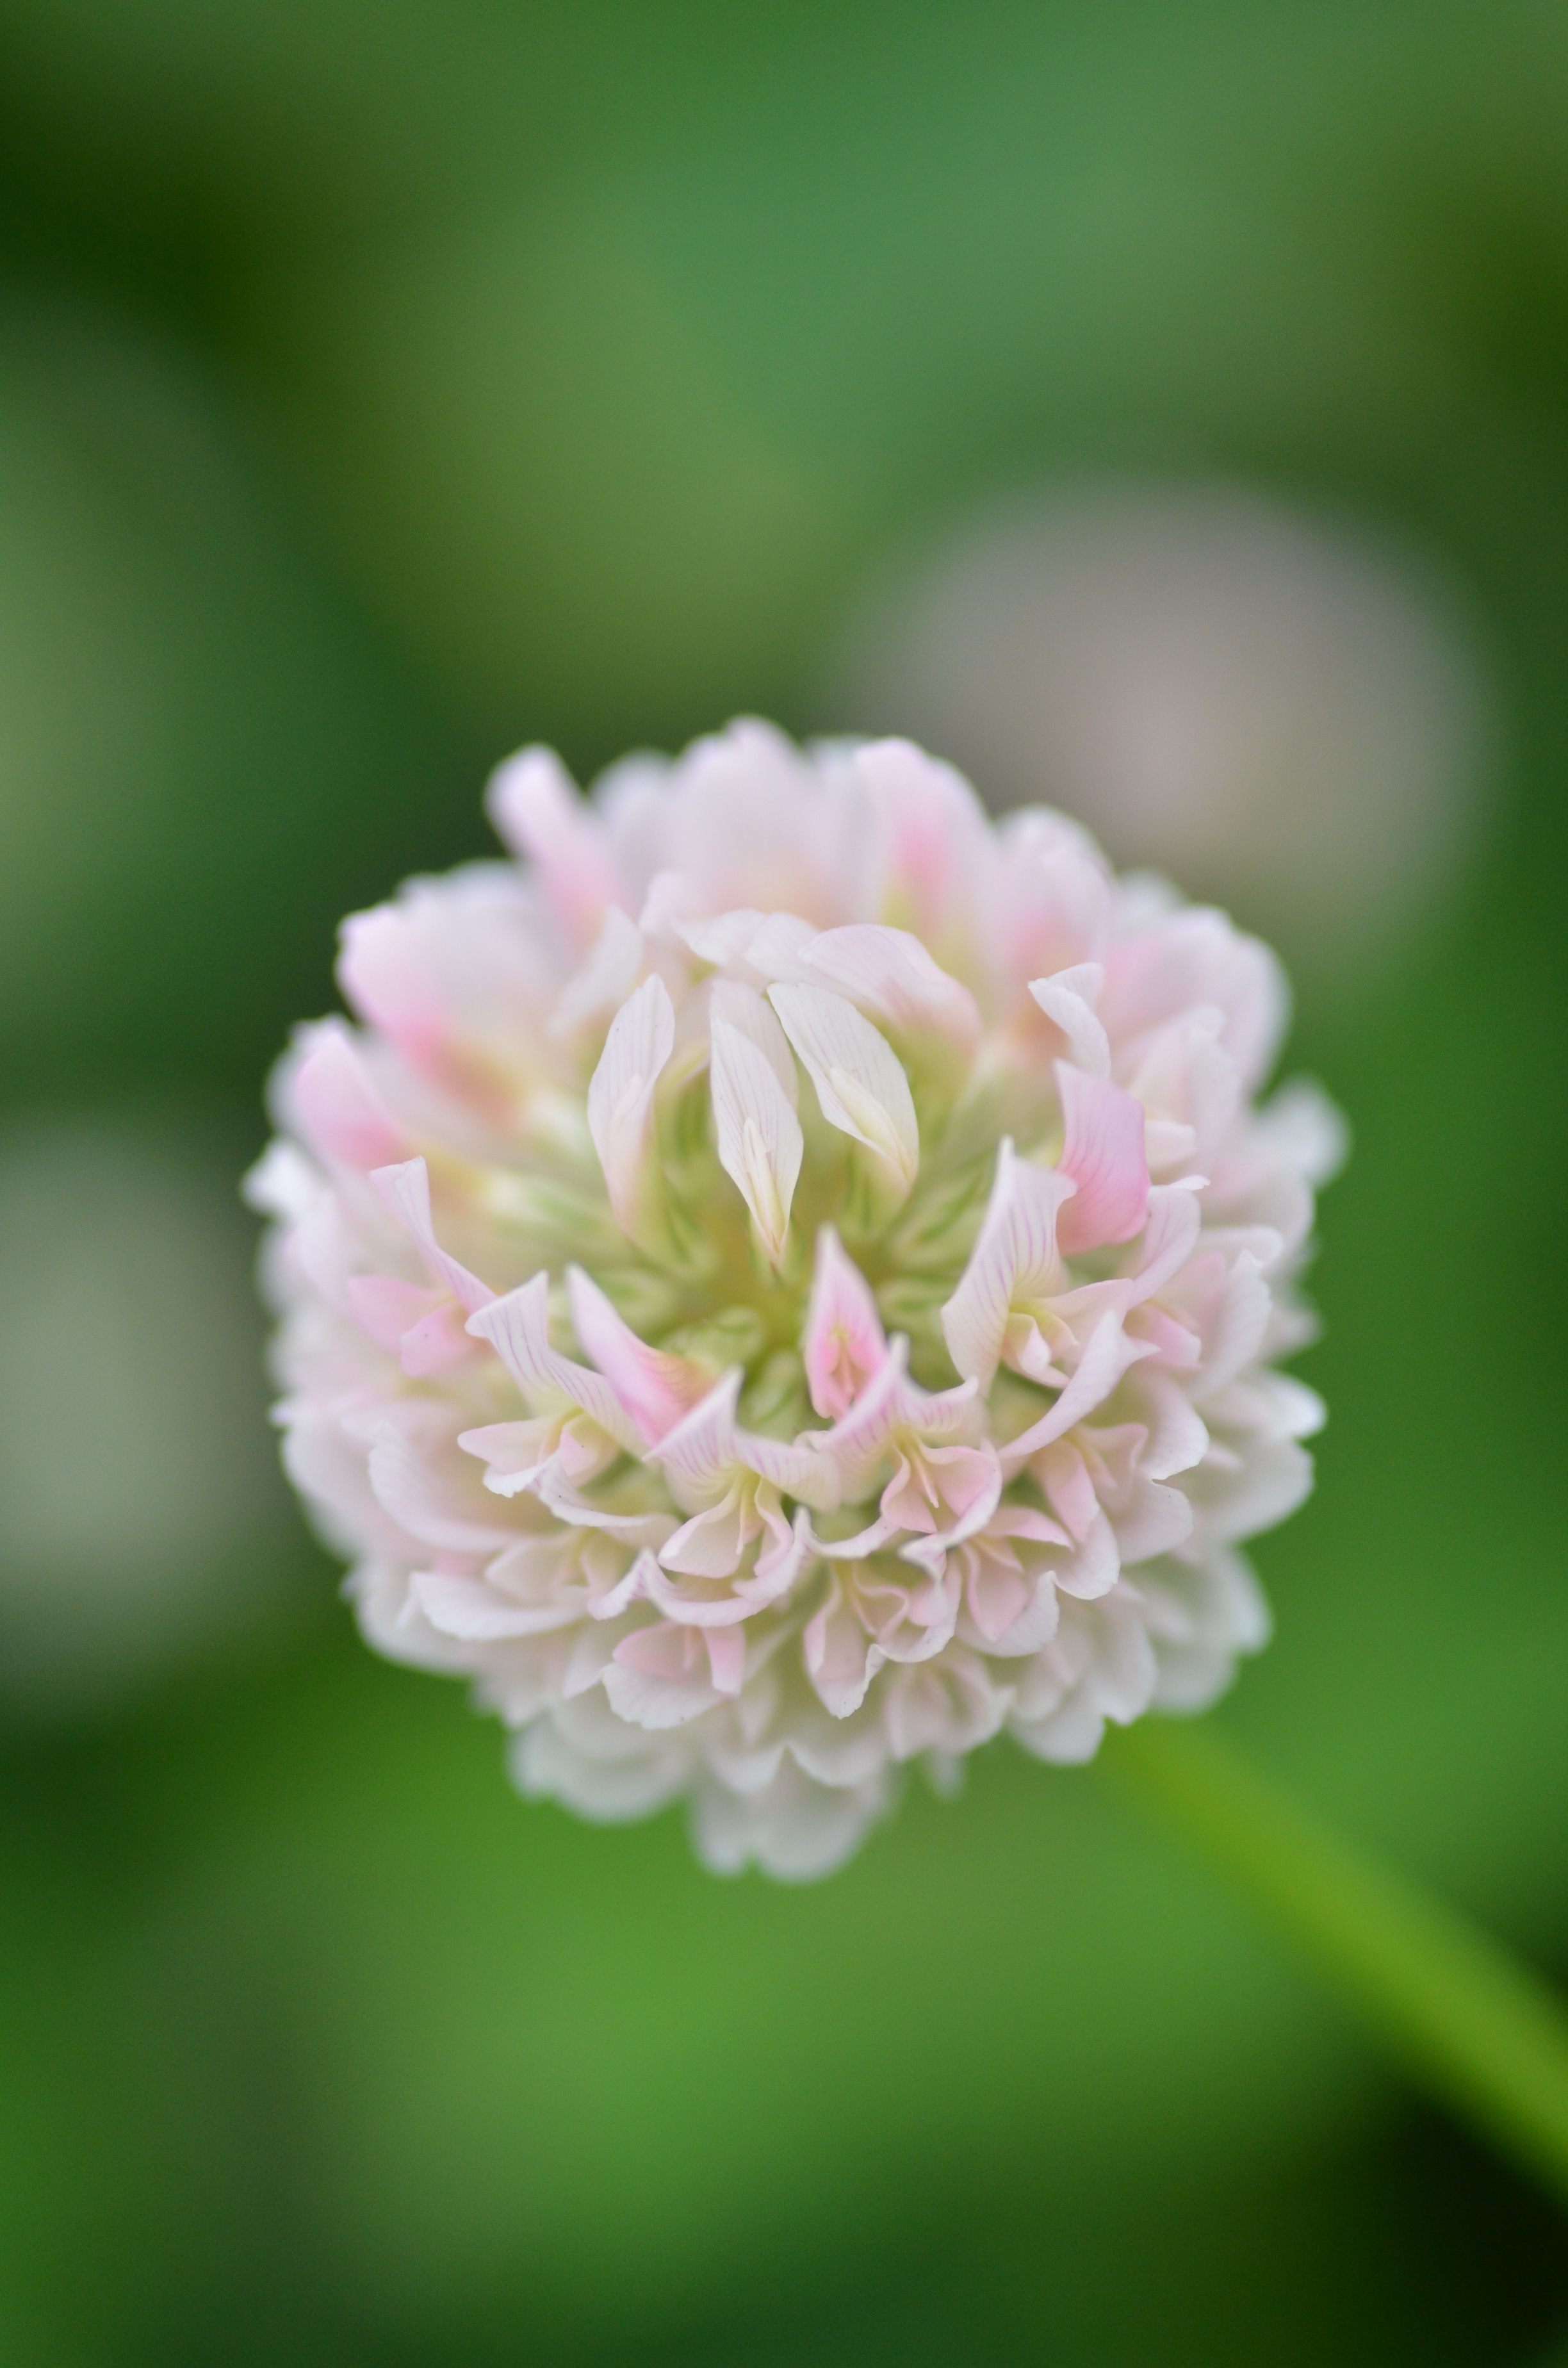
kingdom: Plantae
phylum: Tracheophyta
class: Magnoliopsida
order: Fabales
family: Fabaceae
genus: Trifolium
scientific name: Trifolium hybridum
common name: Alsike clover
